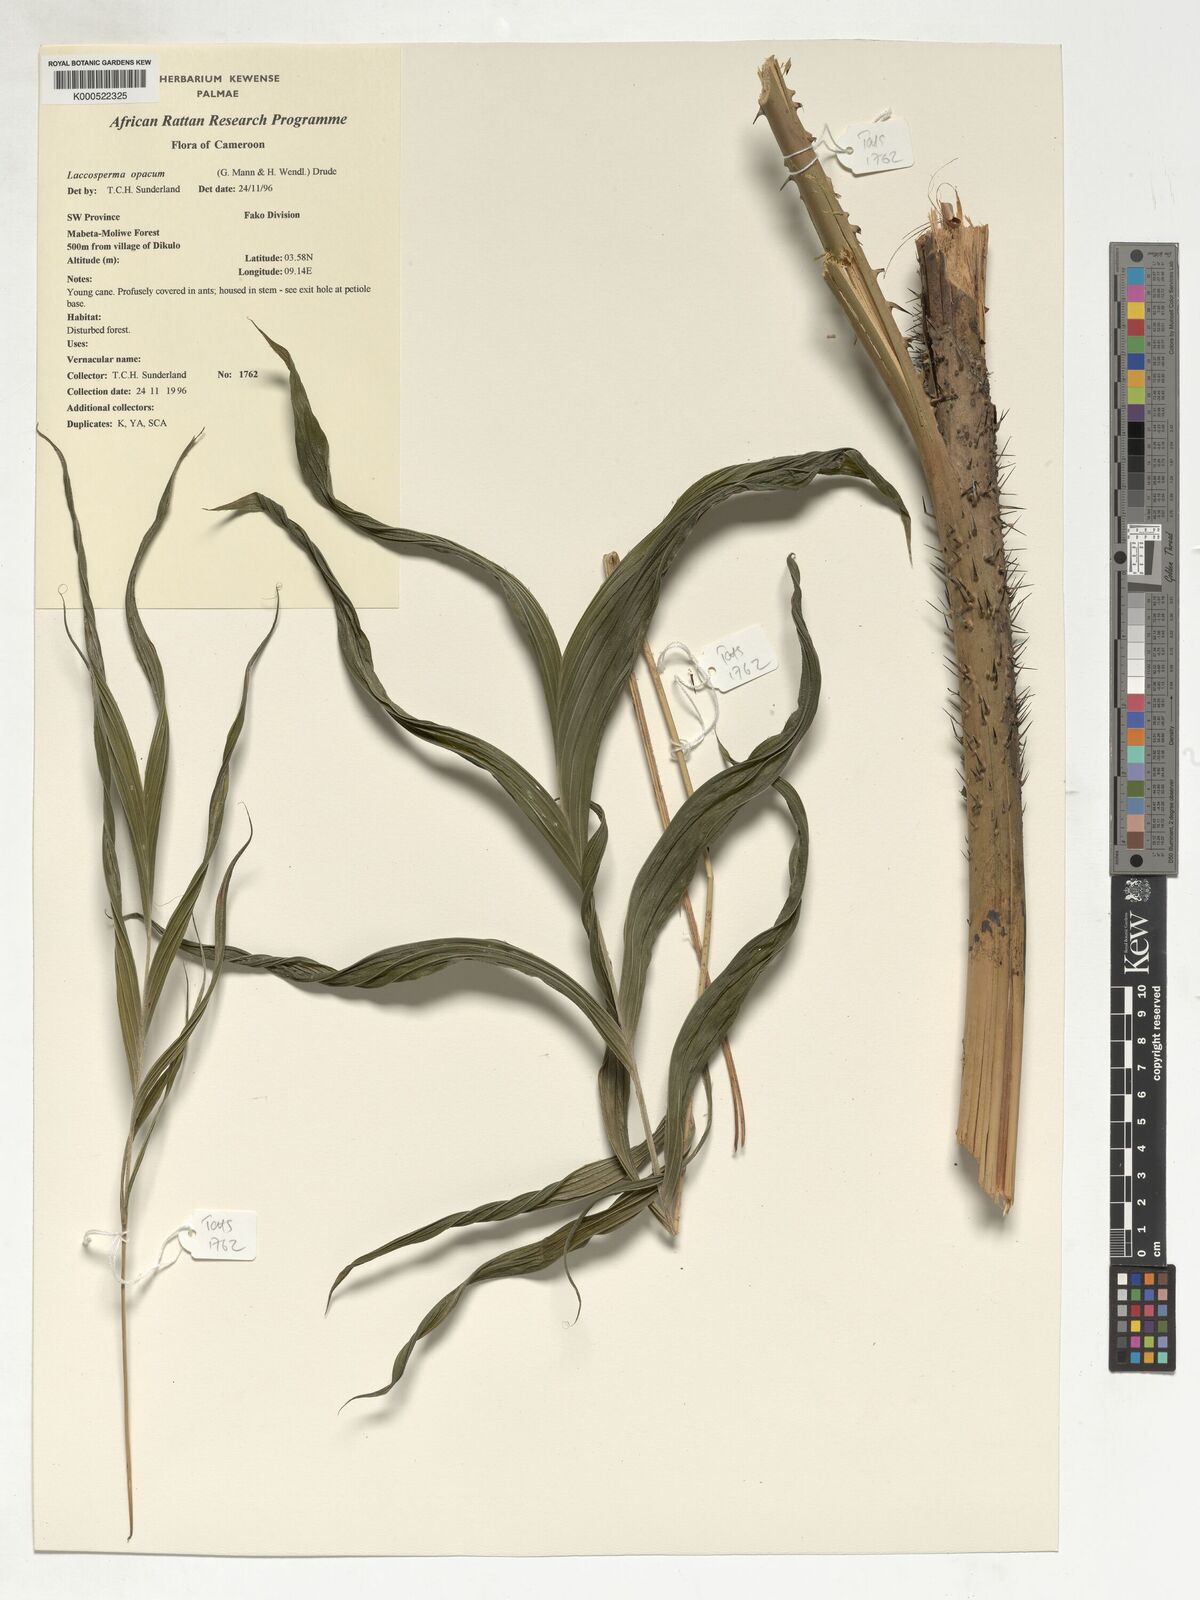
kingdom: Plantae
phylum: Tracheophyta
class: Liliopsida
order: Arecales
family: Arecaceae
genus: Laccosperma
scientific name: Laccosperma opacum
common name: Rattan
